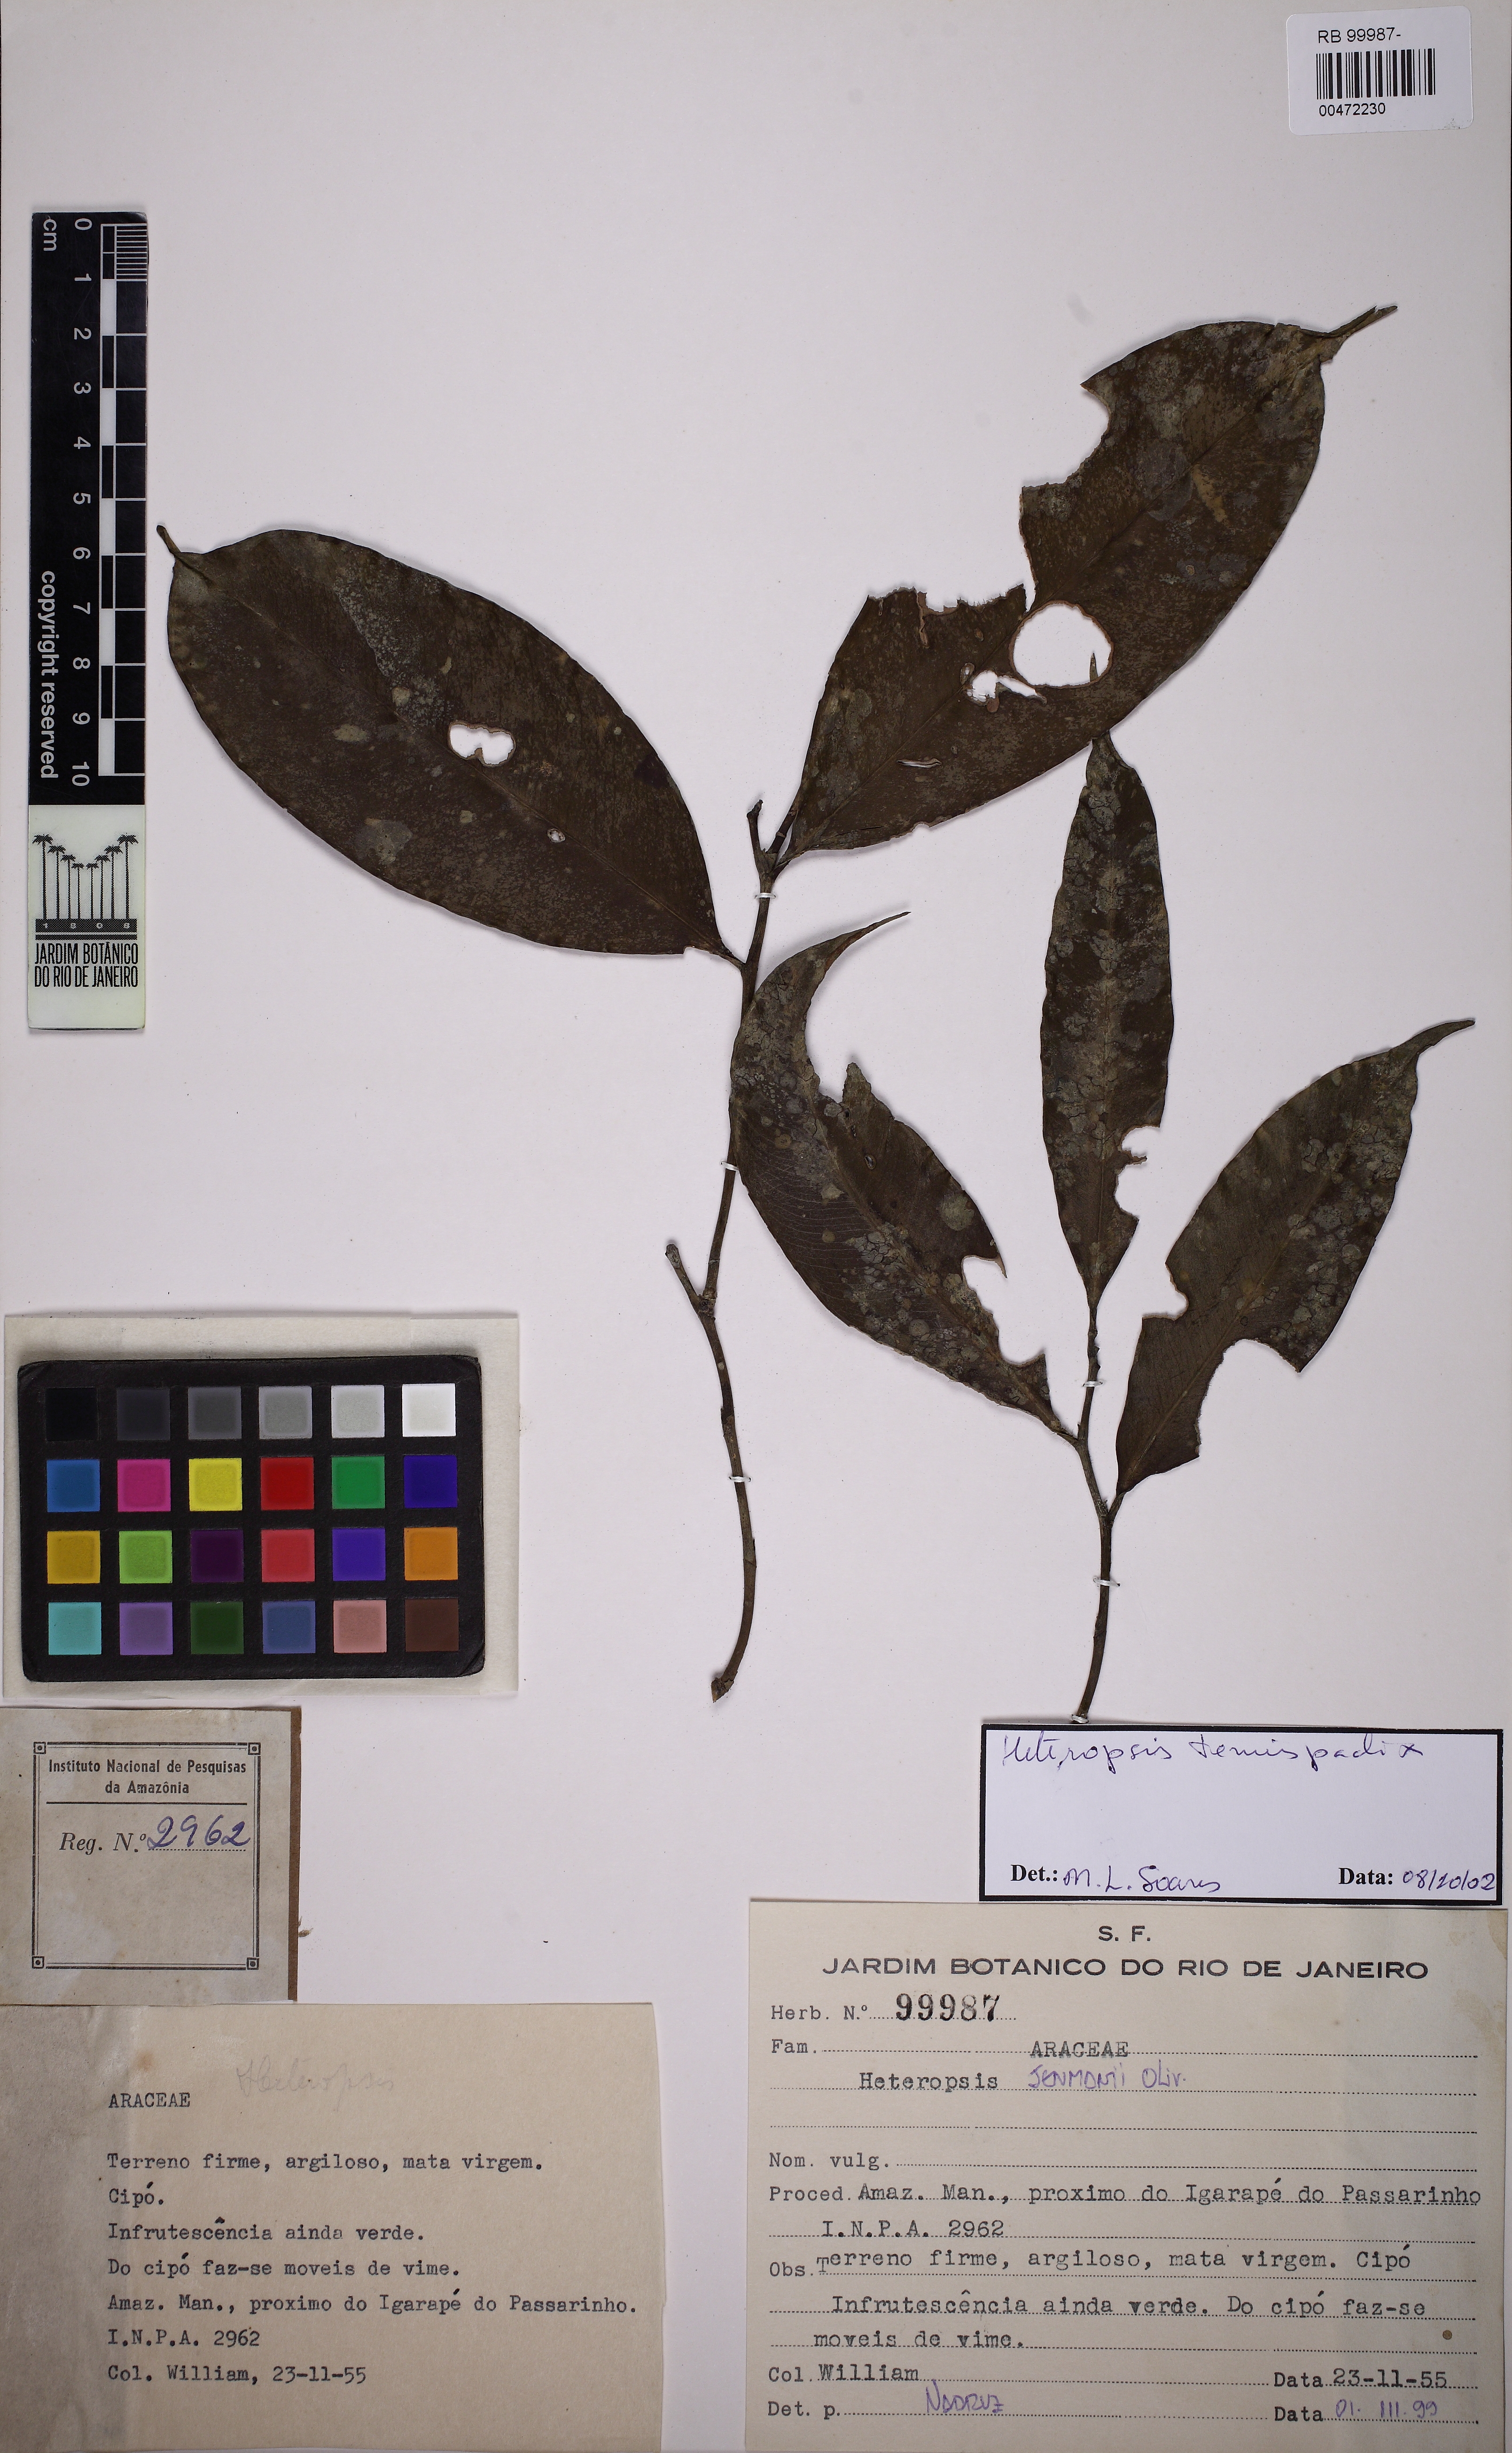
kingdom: Plantae
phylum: Tracheophyta
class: Liliopsida
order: Alismatales
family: Araceae
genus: Heteropsis
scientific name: Heteropsis tenuispadix
